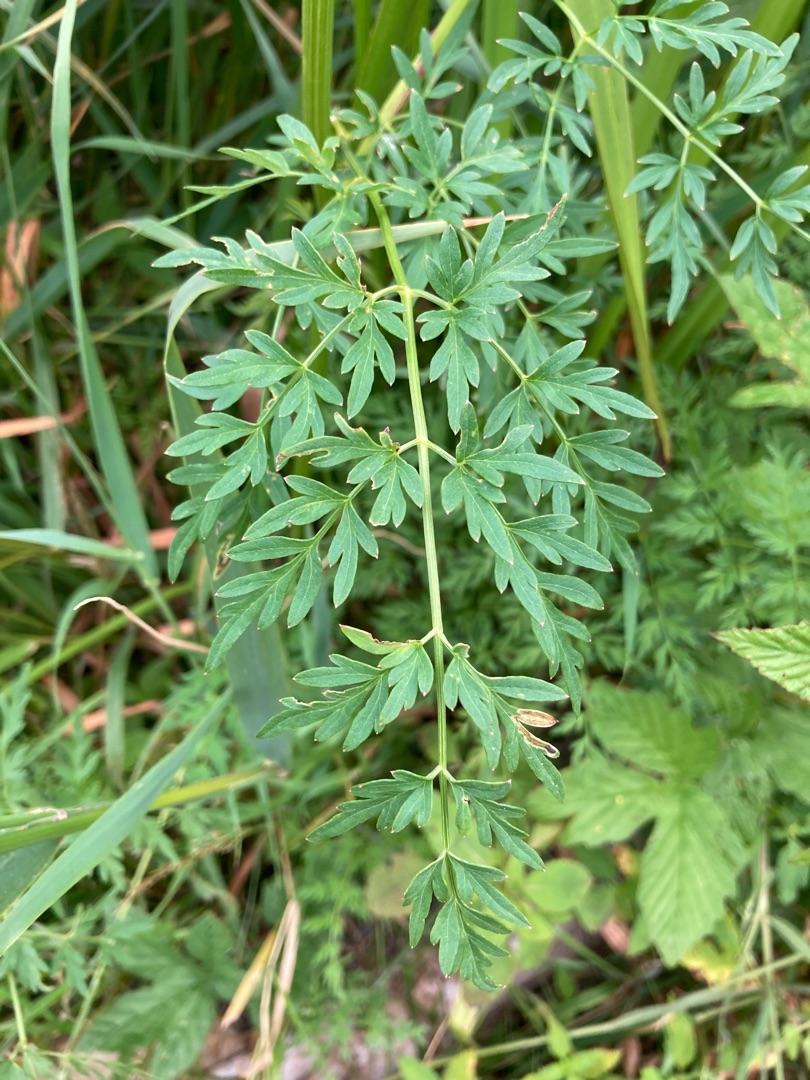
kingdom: Plantae
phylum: Tracheophyta
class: Magnoliopsida
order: Apiales
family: Apiaceae
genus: Thysselinum
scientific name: Thysselinum palustre
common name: Kær-svovlrod
